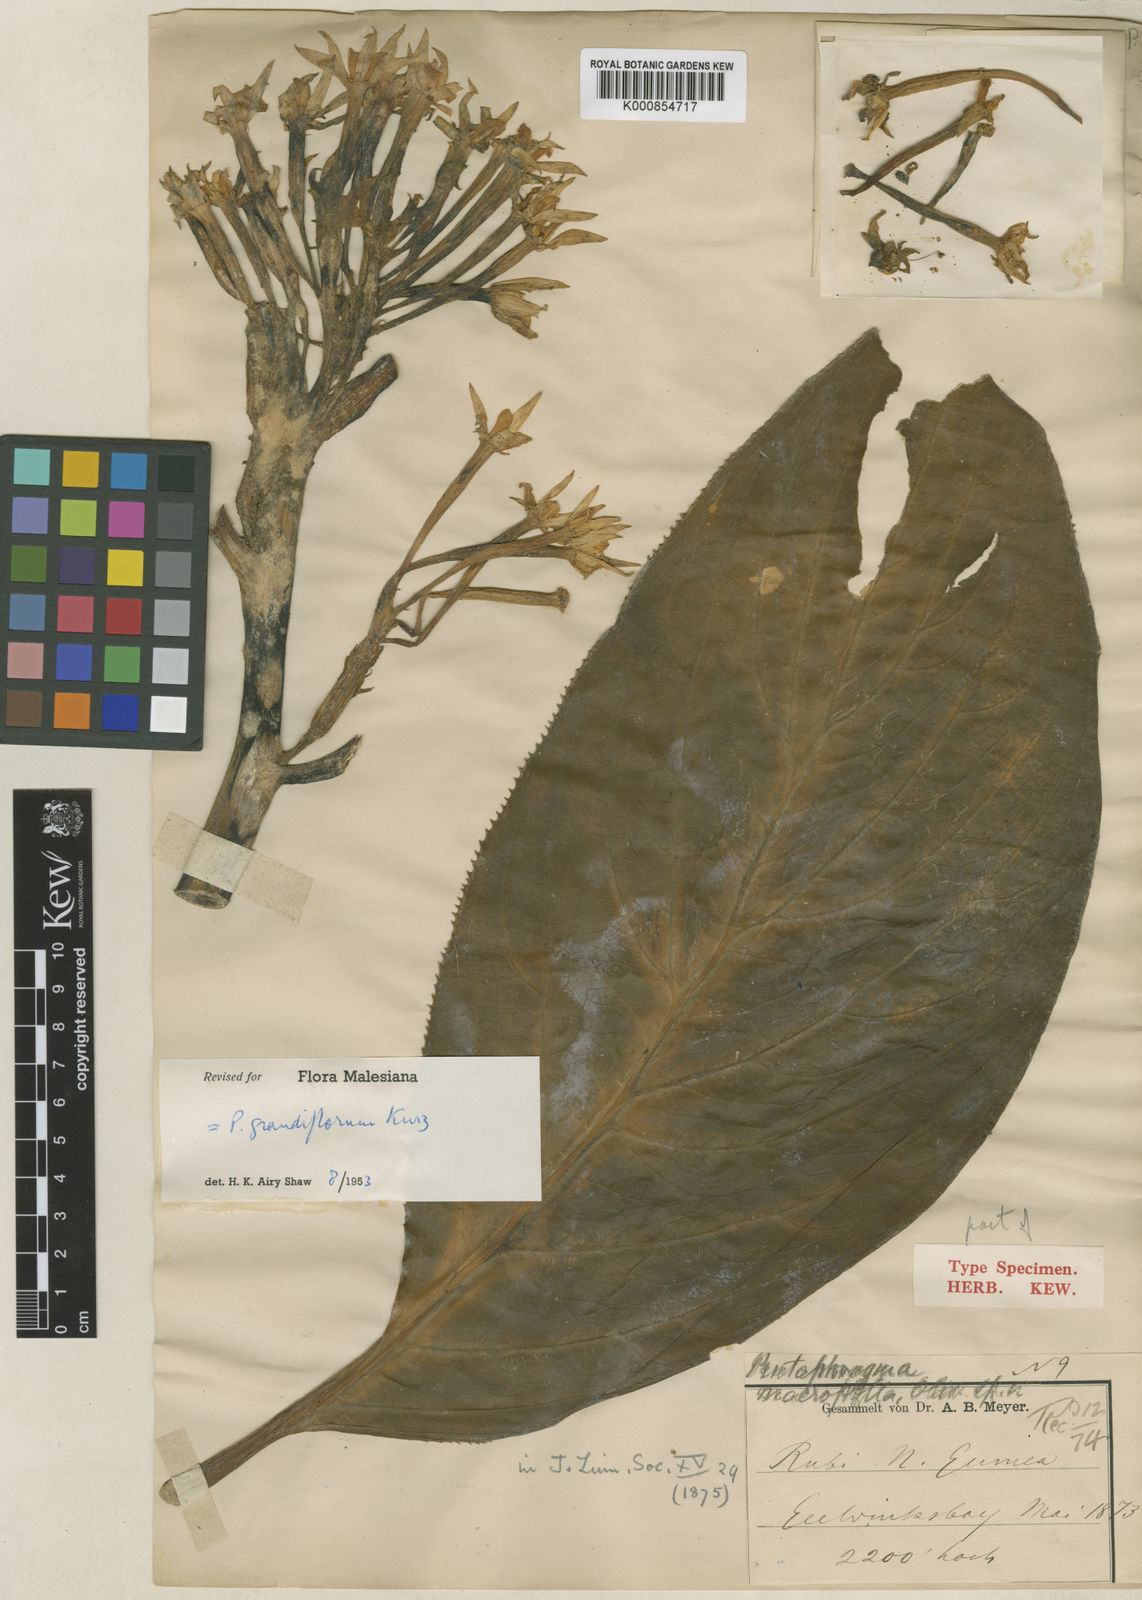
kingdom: Plantae
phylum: Tracheophyta
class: Magnoliopsida
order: Asterales
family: Pentaphragmataceae
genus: Pentaphragma
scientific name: Pentaphragma grandiflorum
